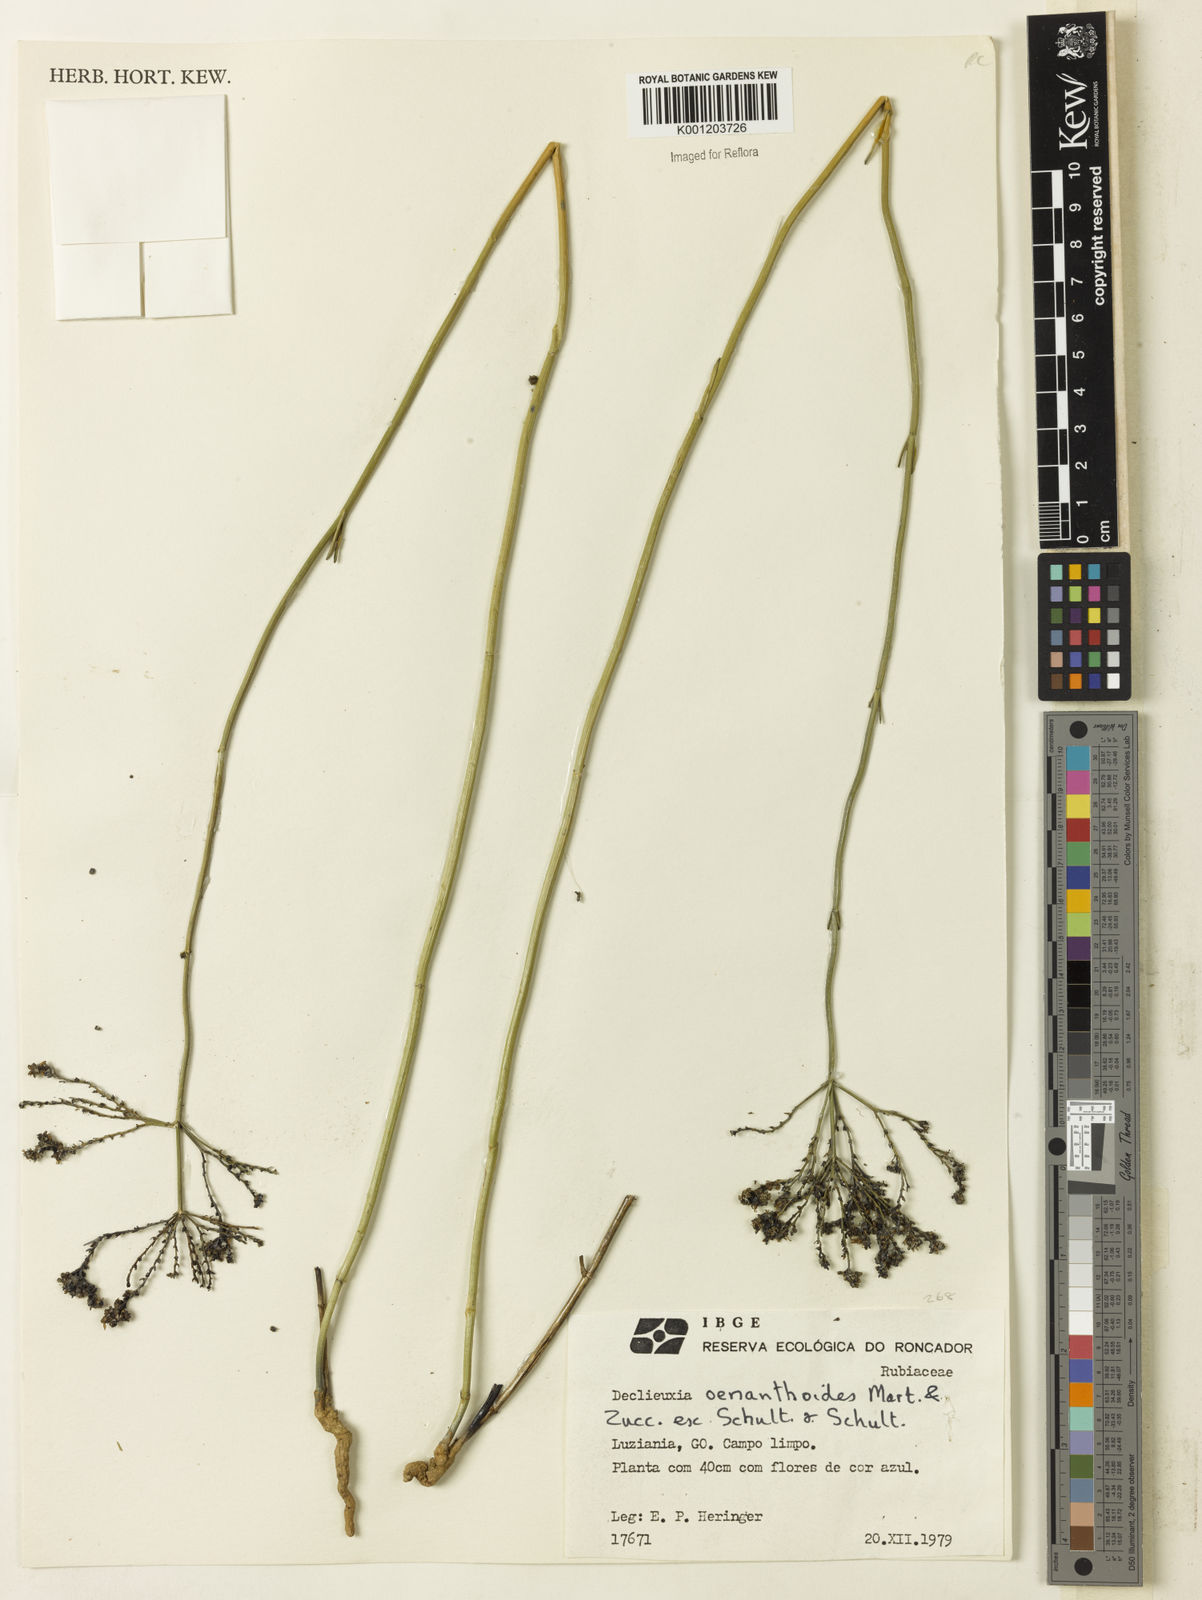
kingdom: Plantae
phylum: Tracheophyta
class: Magnoliopsida
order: Gentianales
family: Rubiaceae
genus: Declieuxia
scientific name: Declieuxia
